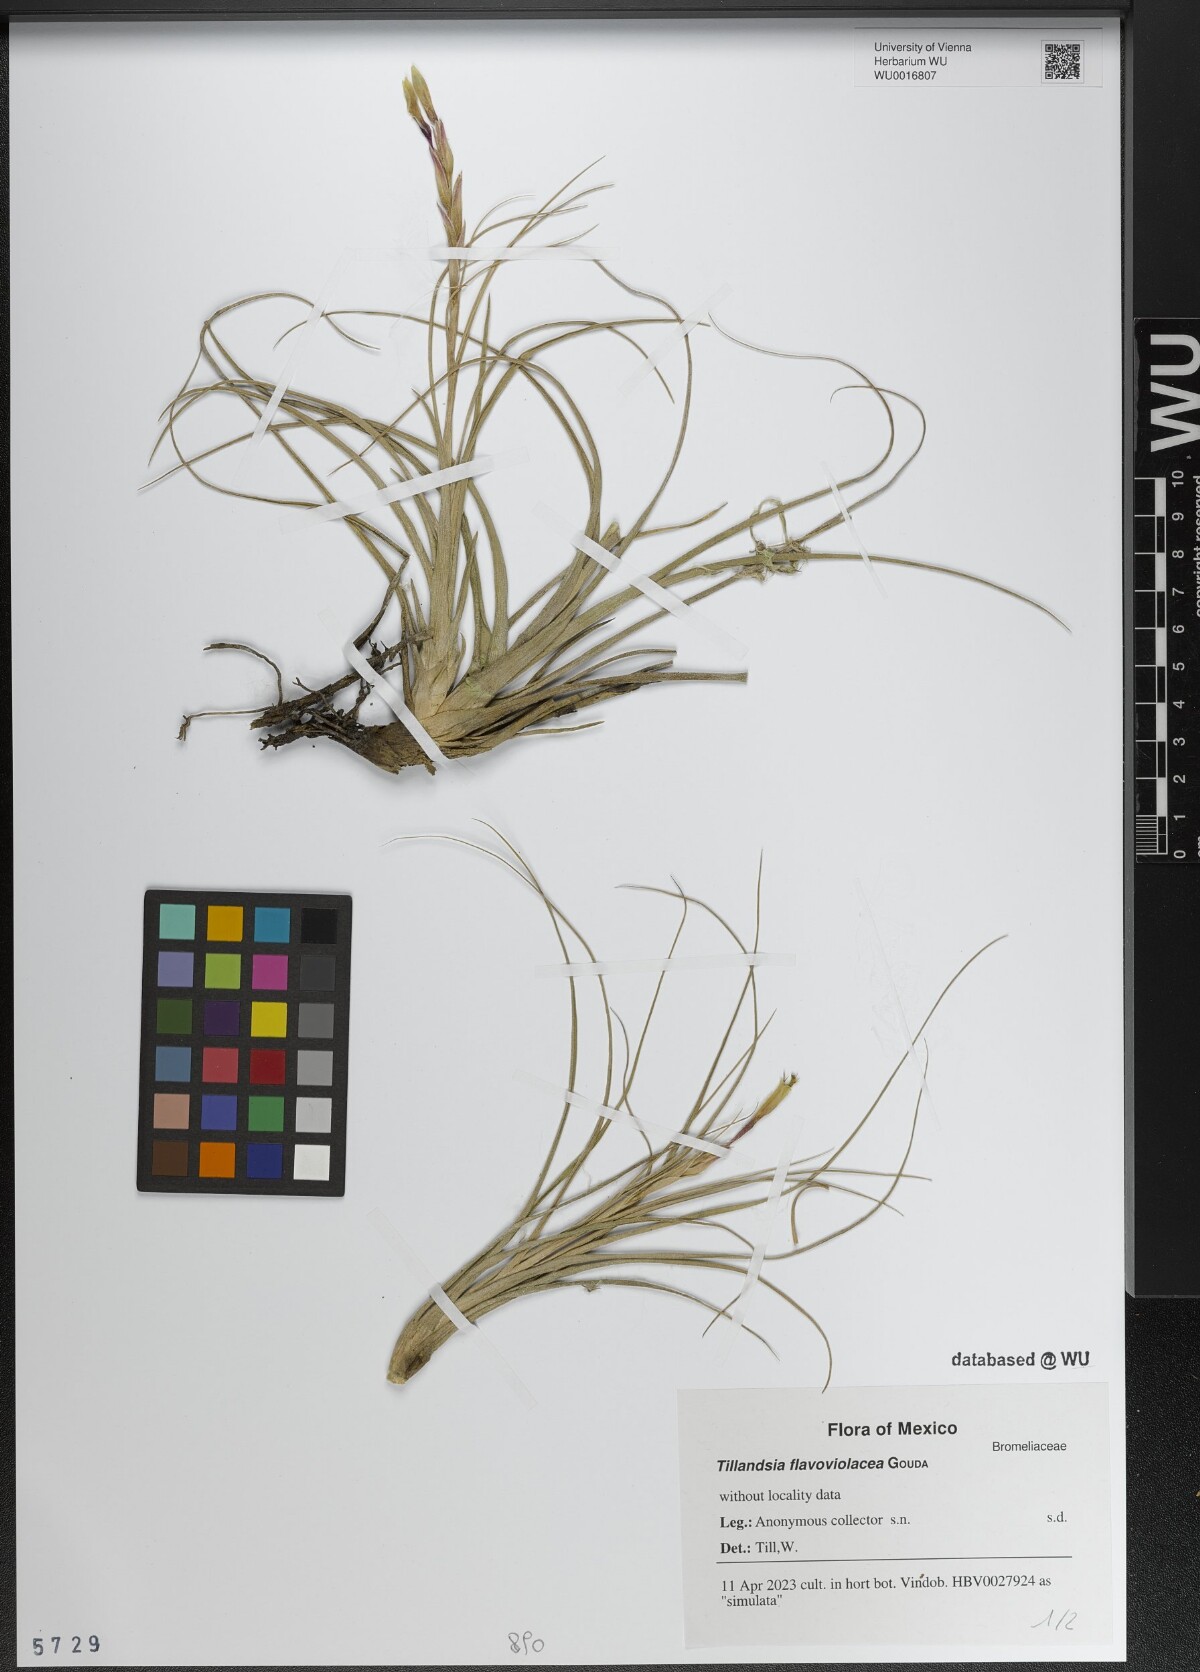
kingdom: Plantae
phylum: Tracheophyta
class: Liliopsida
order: Poales
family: Bromeliaceae
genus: Tillandsia
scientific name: Tillandsia flavoviolacea
